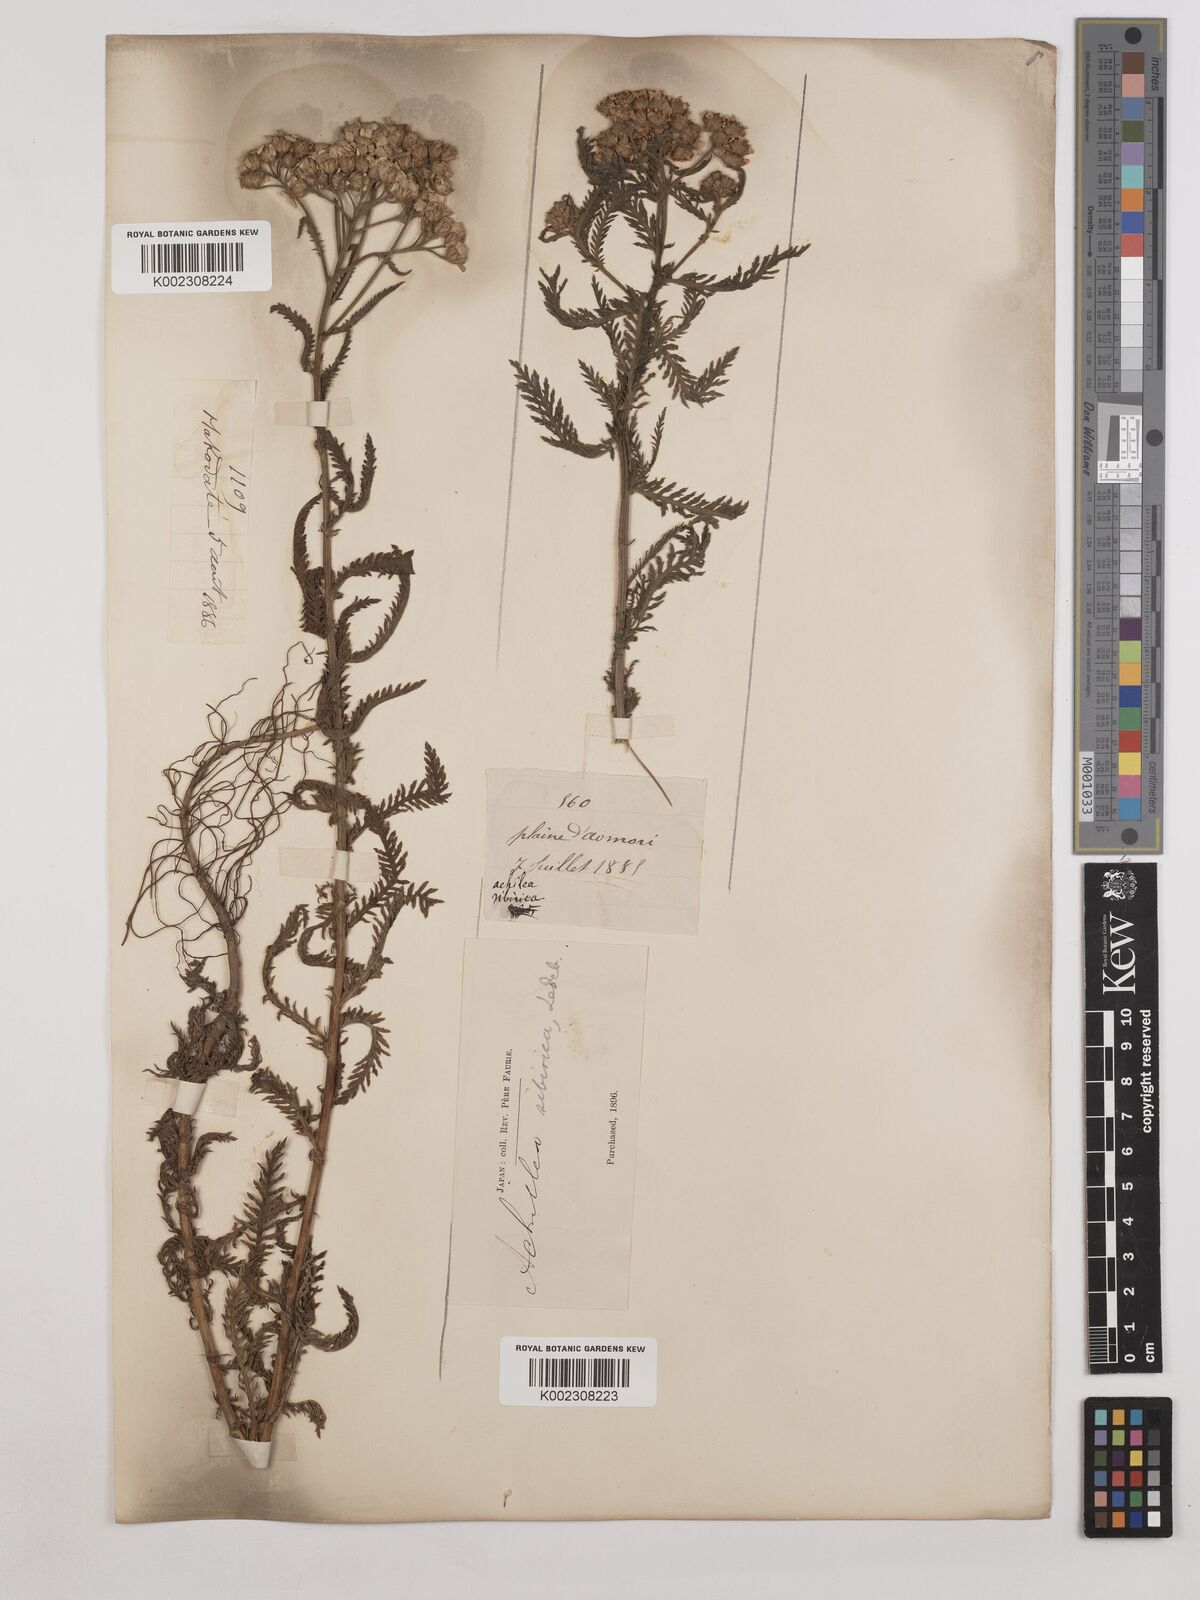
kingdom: Plantae
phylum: Tracheophyta
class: Magnoliopsida
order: Asterales
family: Asteraceae
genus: Achillea
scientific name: Achillea alpina
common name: Siberian yarrow
